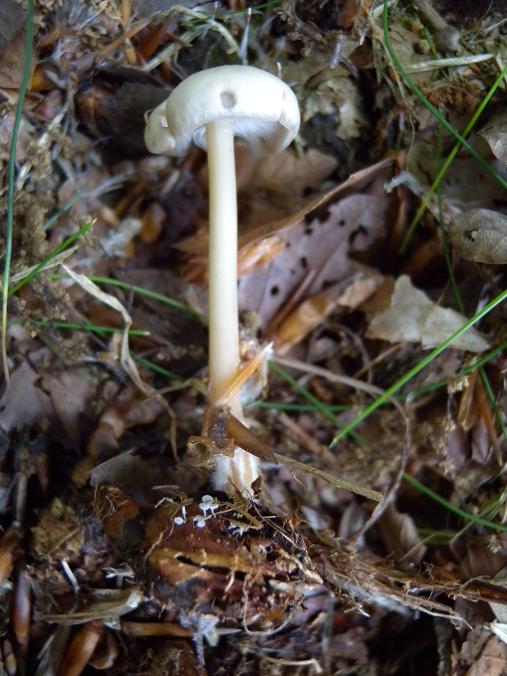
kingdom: Fungi
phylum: Basidiomycota
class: Agaricomycetes
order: Agaricales
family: Omphalotaceae
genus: Gymnopus
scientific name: Gymnopus aquosus
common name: bleg fladhat
